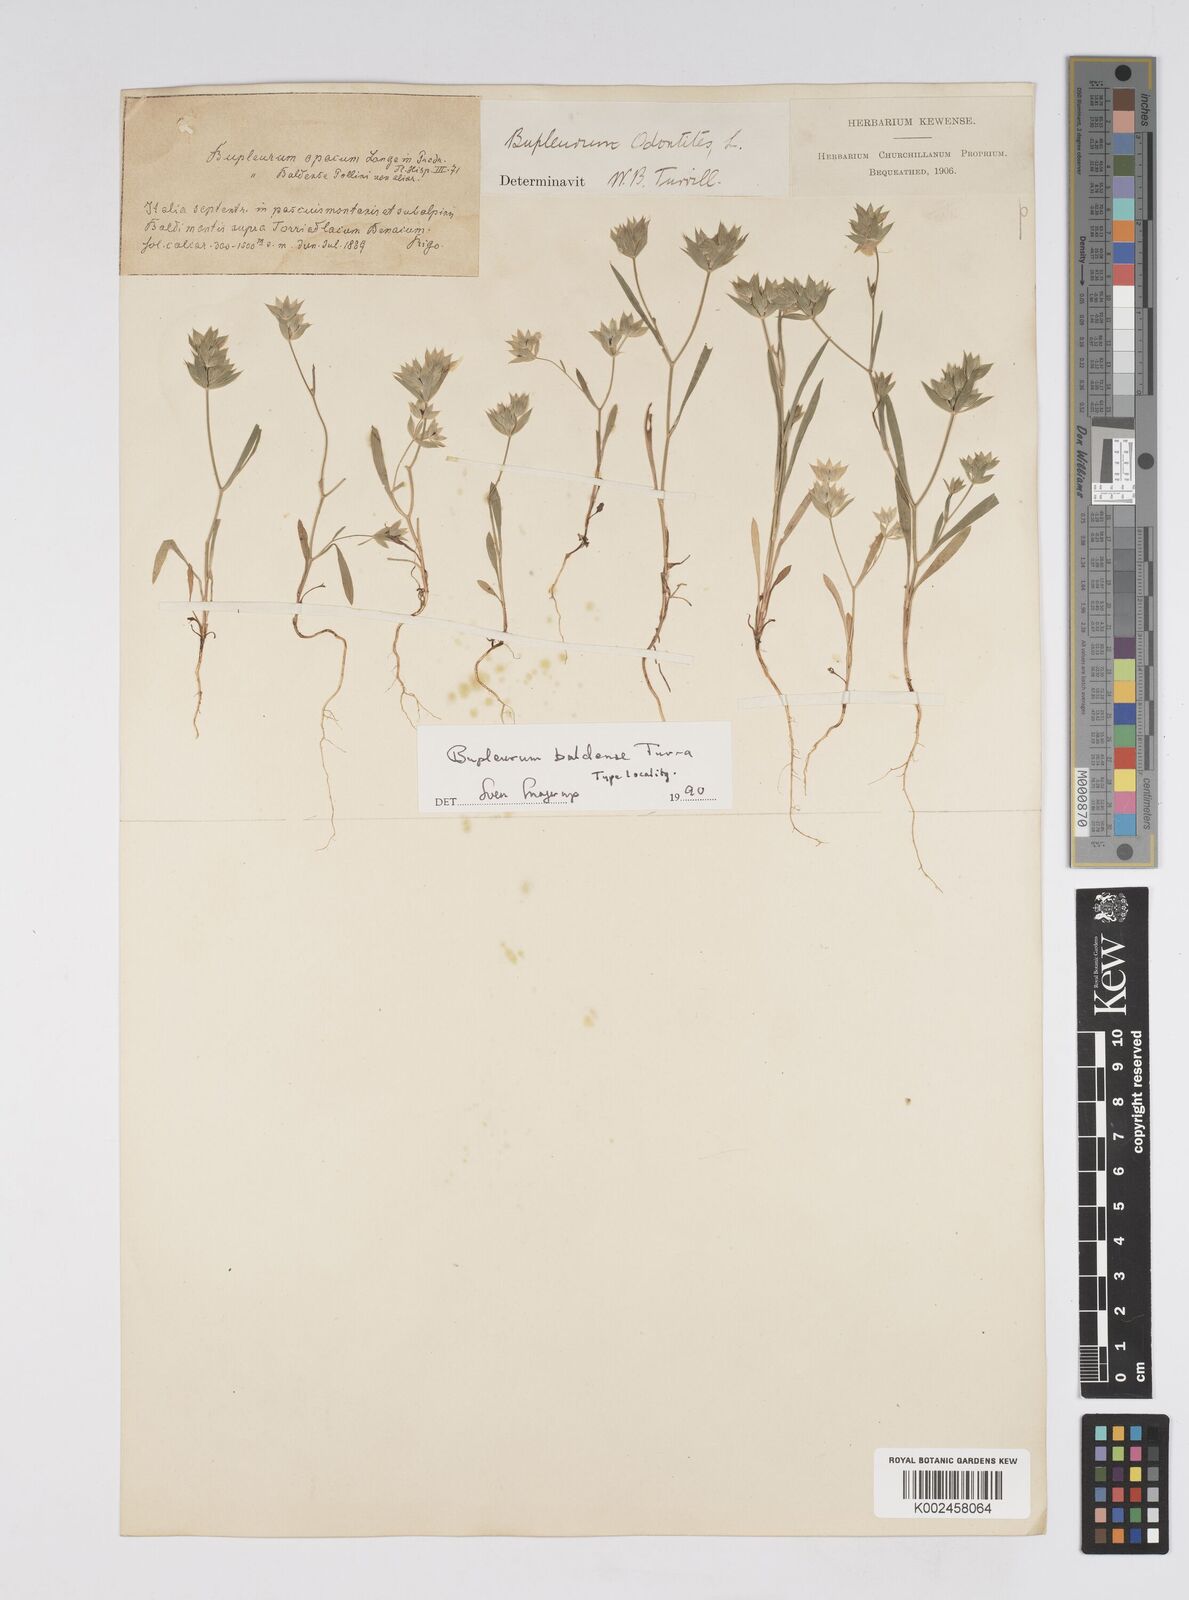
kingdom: Plantae
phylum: Tracheophyta
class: Magnoliopsida
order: Apiales
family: Apiaceae
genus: Bupleurum
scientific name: Bupleurum baldense
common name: Small hare's-ear
